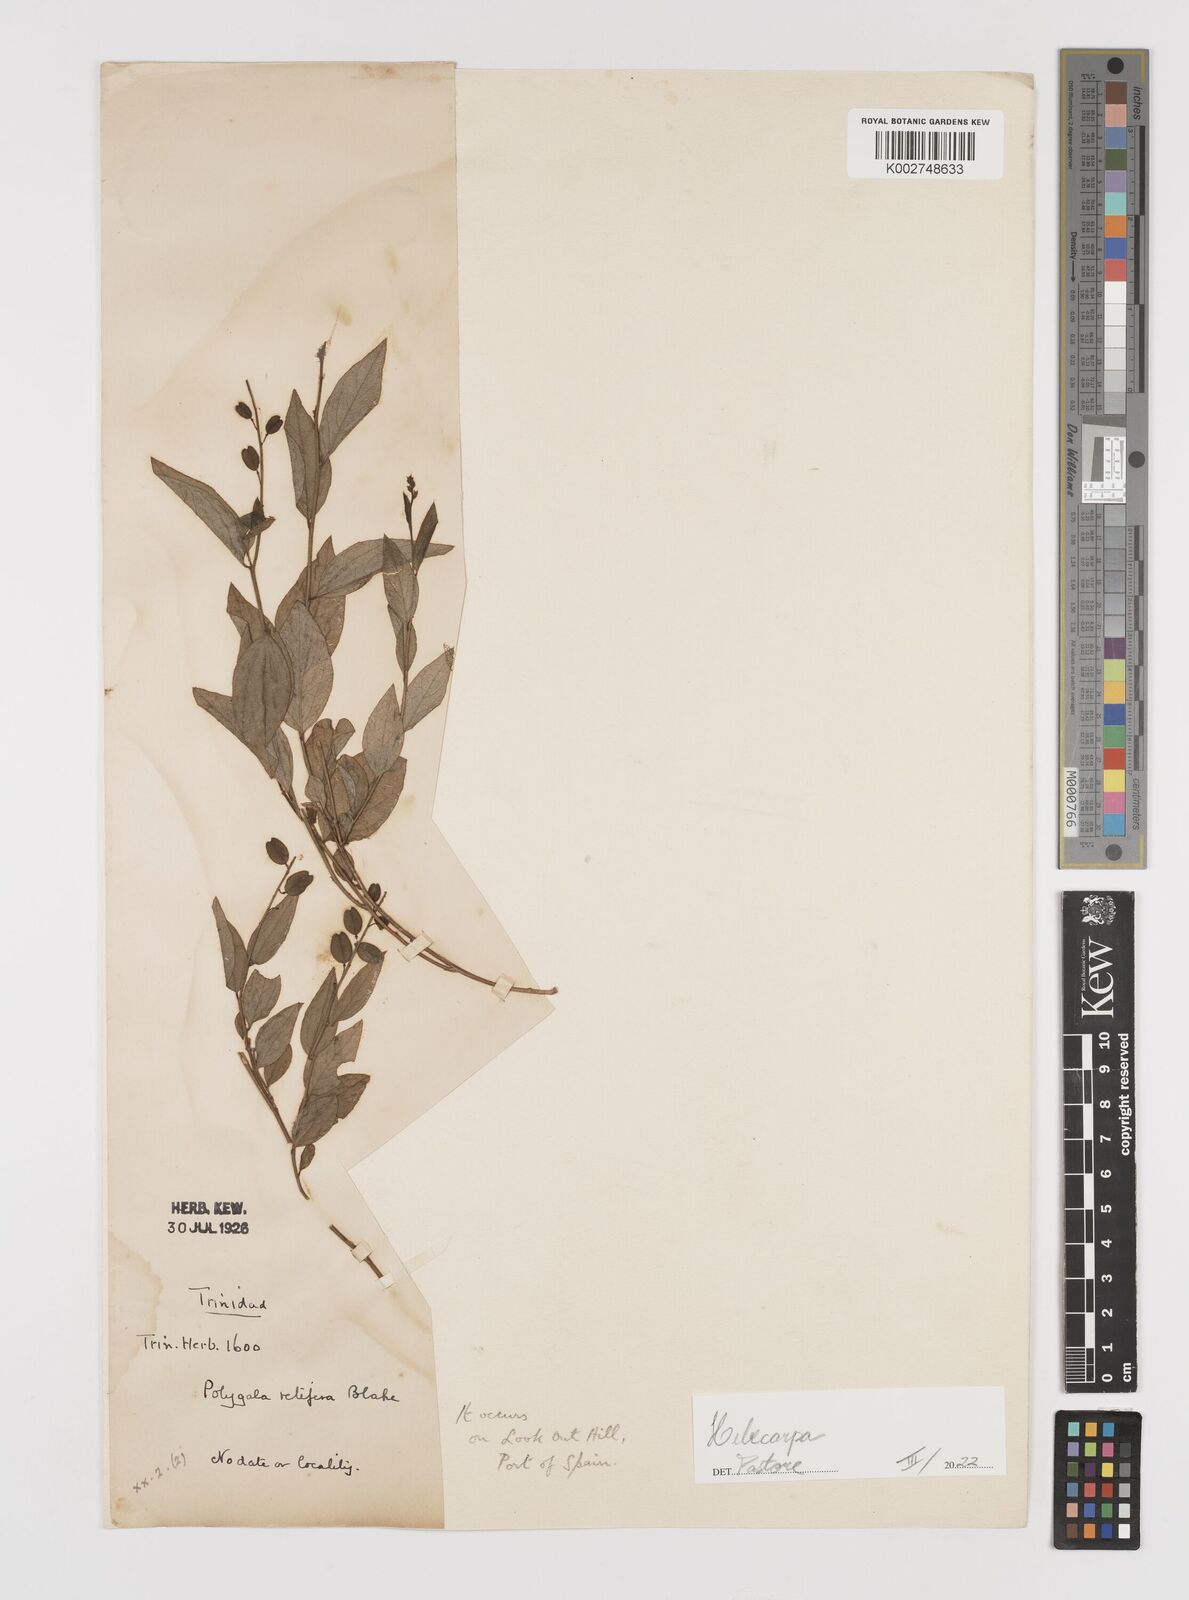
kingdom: Plantae
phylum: Tracheophyta
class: Magnoliopsida
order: Fabales
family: Polygalaceae
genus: Hebecarpa
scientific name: Hebecarpa
